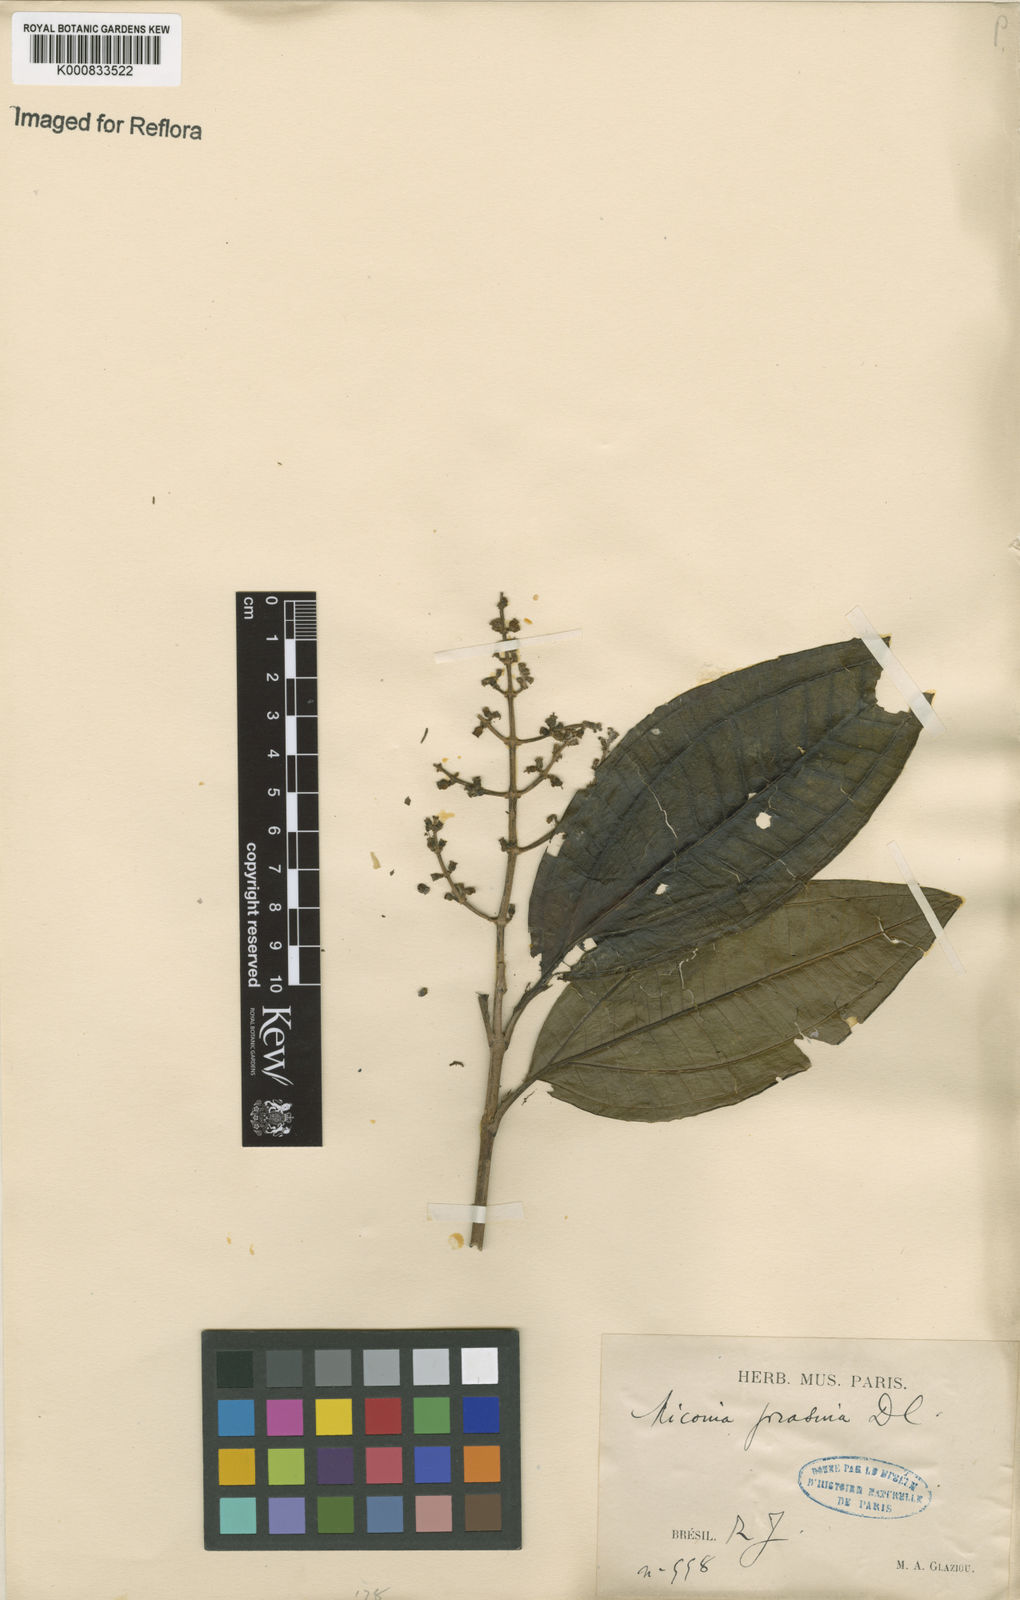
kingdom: Plantae
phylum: Tracheophyta
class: Magnoliopsida
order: Myrtales
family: Melastomataceae
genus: Miconia
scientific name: Miconia prasina
